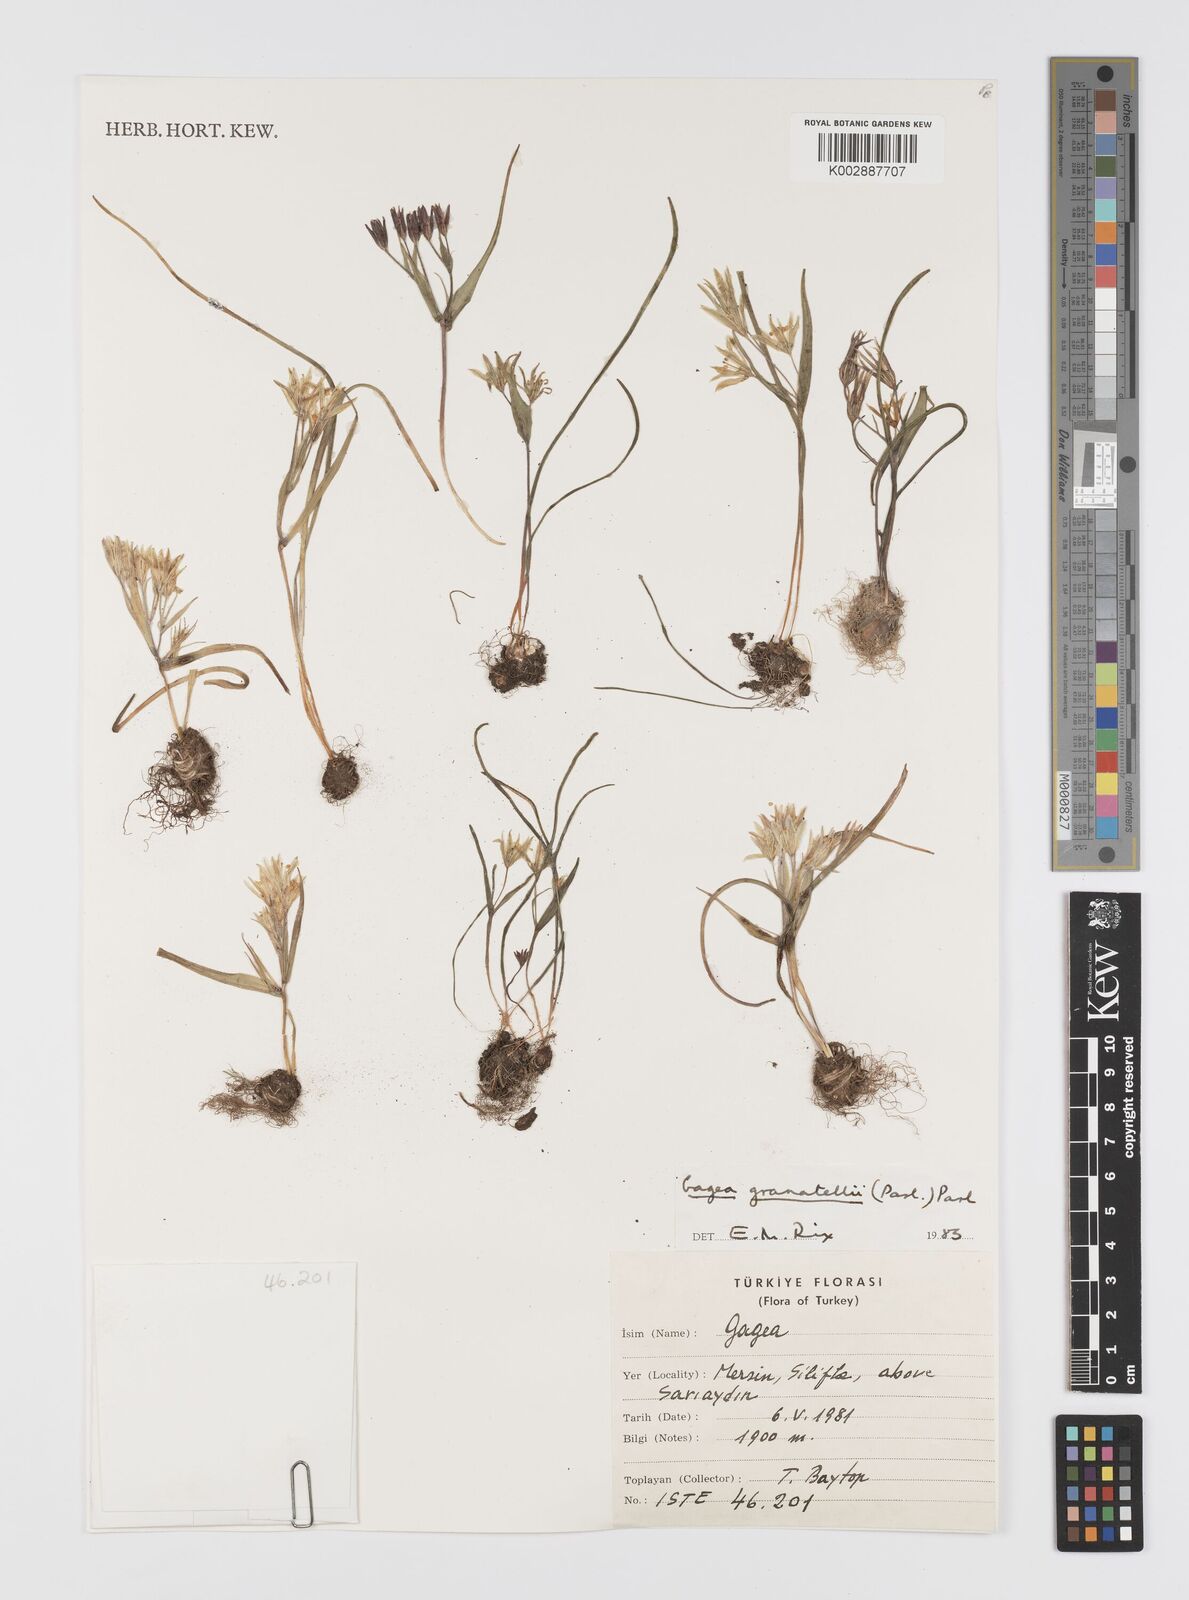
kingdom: Plantae
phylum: Tracheophyta
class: Liliopsida
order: Liliales
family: Liliaceae
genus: Gagea
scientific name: Gagea minima
